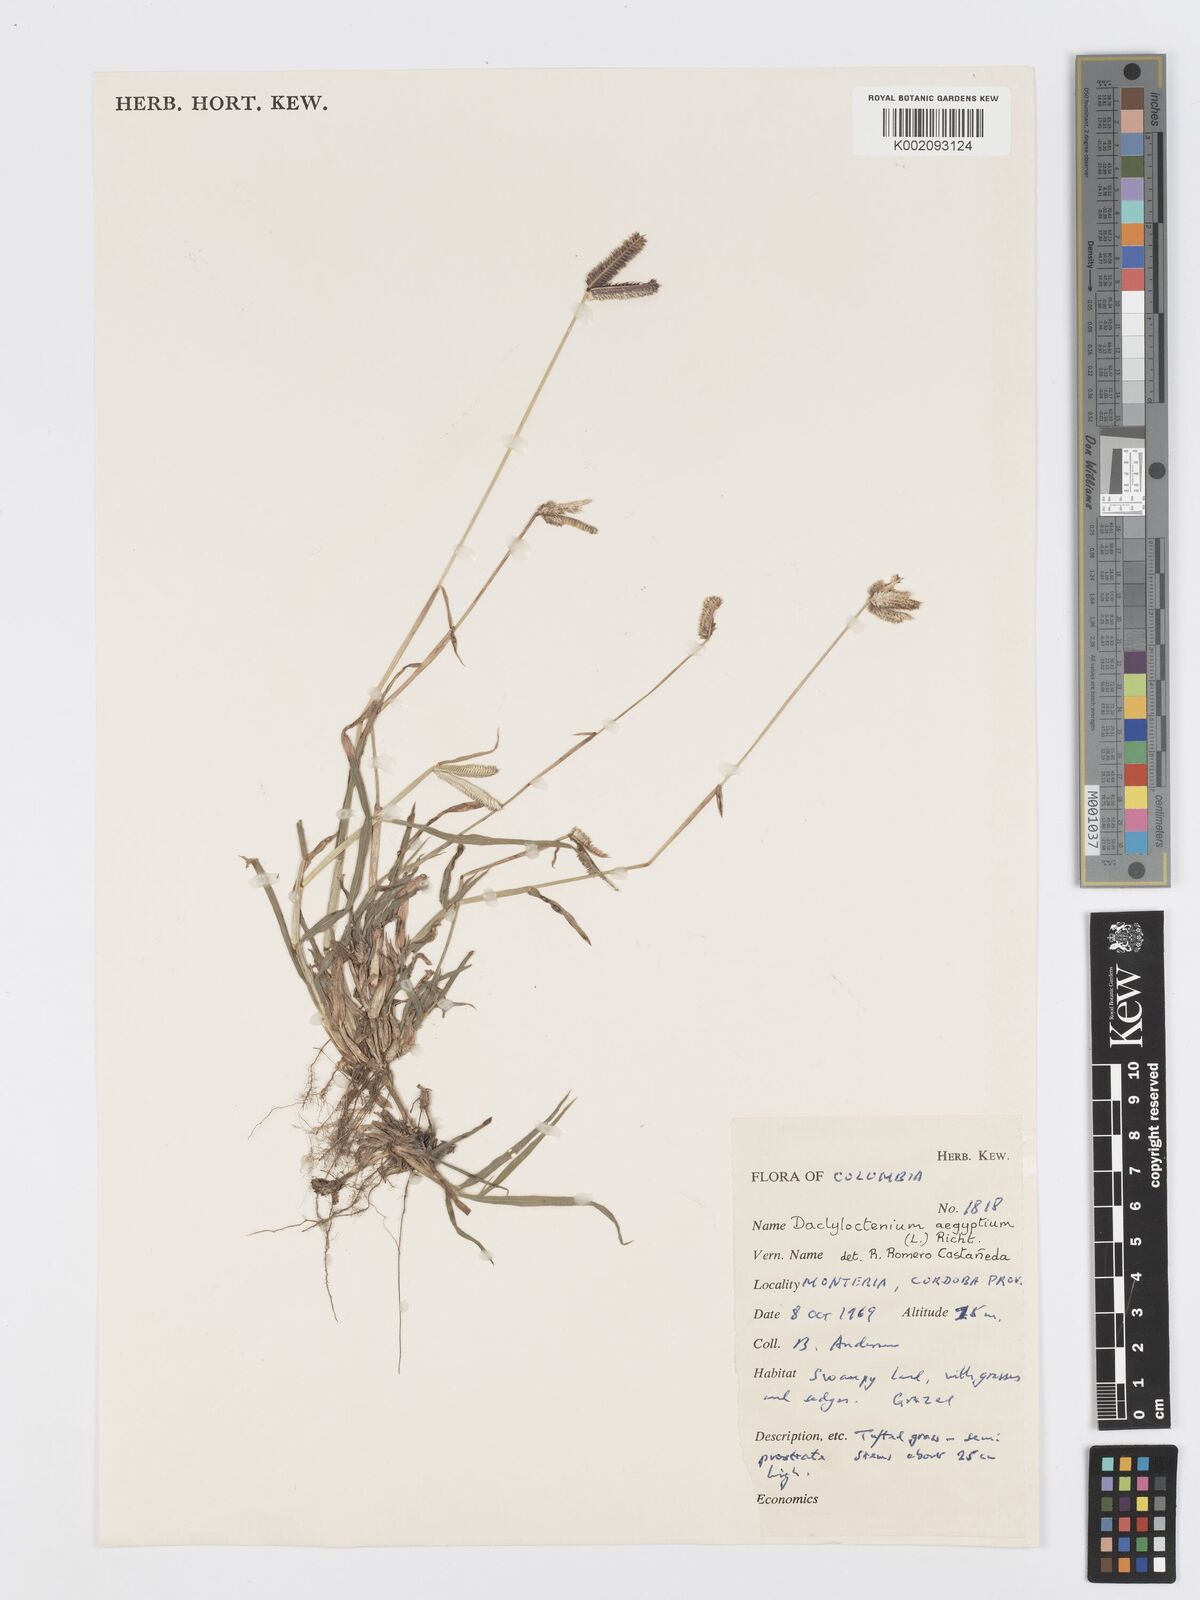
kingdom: Plantae
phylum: Tracheophyta
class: Liliopsida
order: Poales
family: Poaceae
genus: Dactyloctenium
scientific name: Dactyloctenium aegyptium
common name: Egyptian grass
